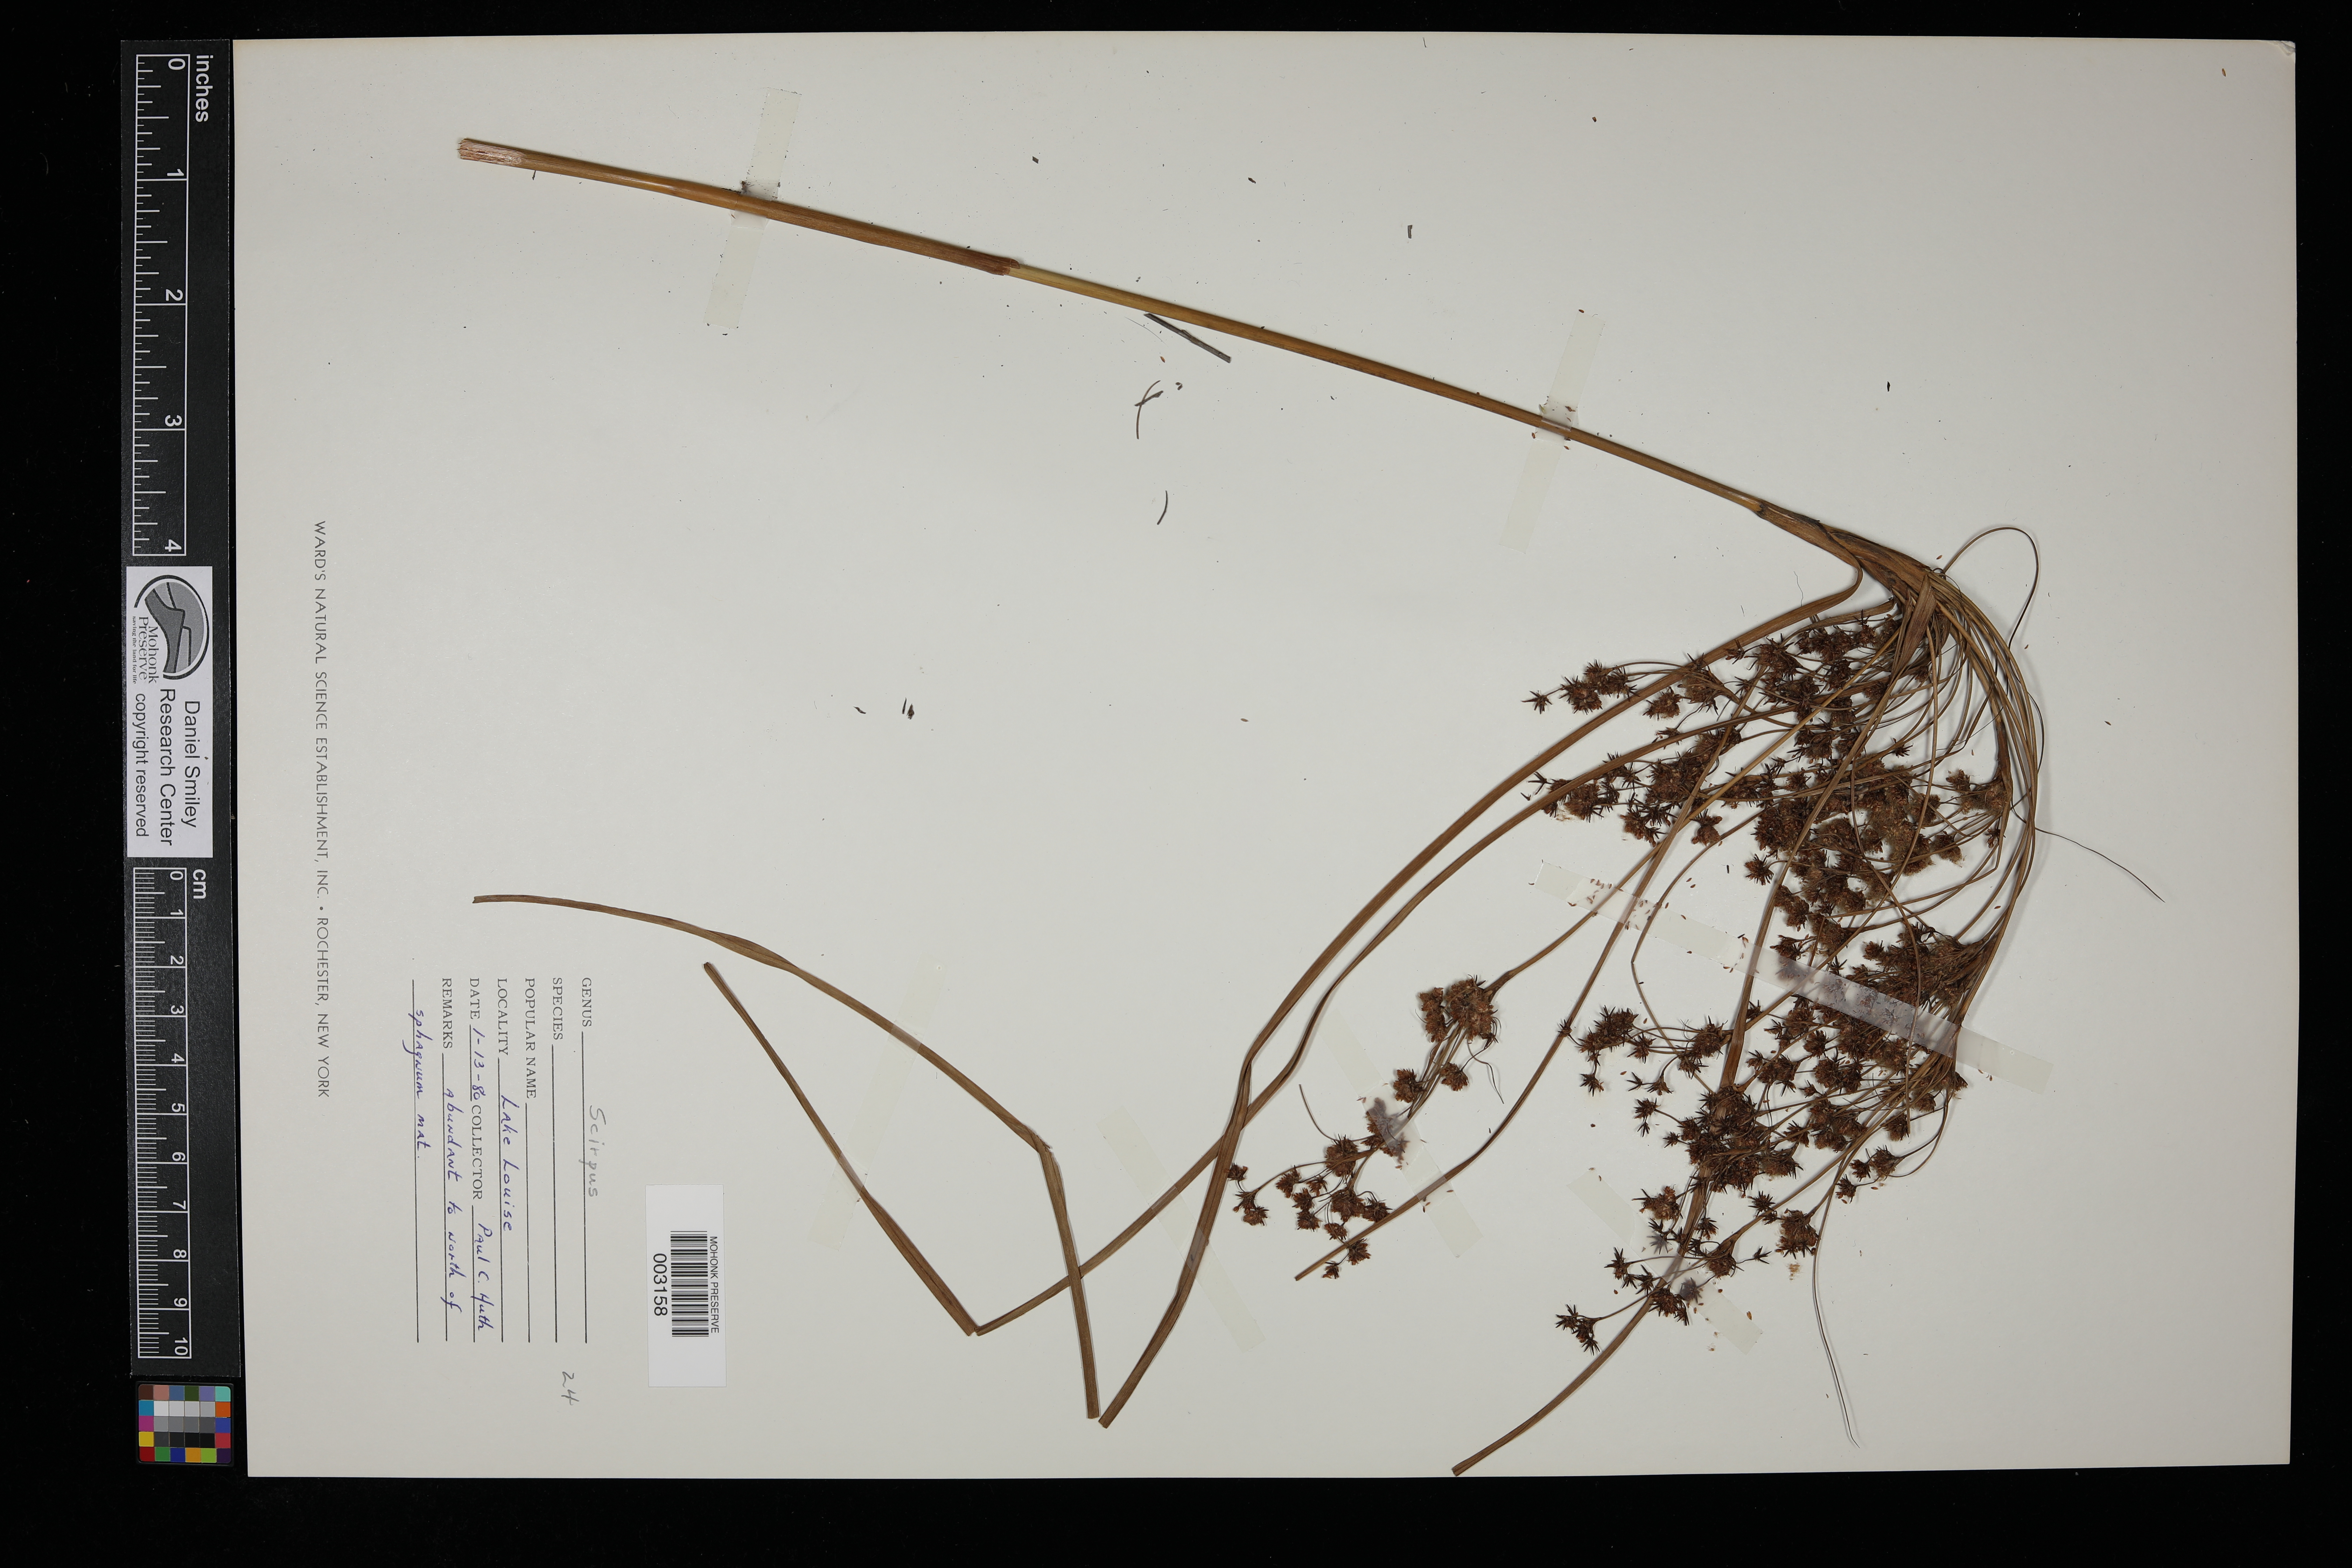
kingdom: Plantae
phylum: Tracheophyta
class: Liliopsida
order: Poales
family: Cyperaceae
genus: Scirpus
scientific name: Scirpus
